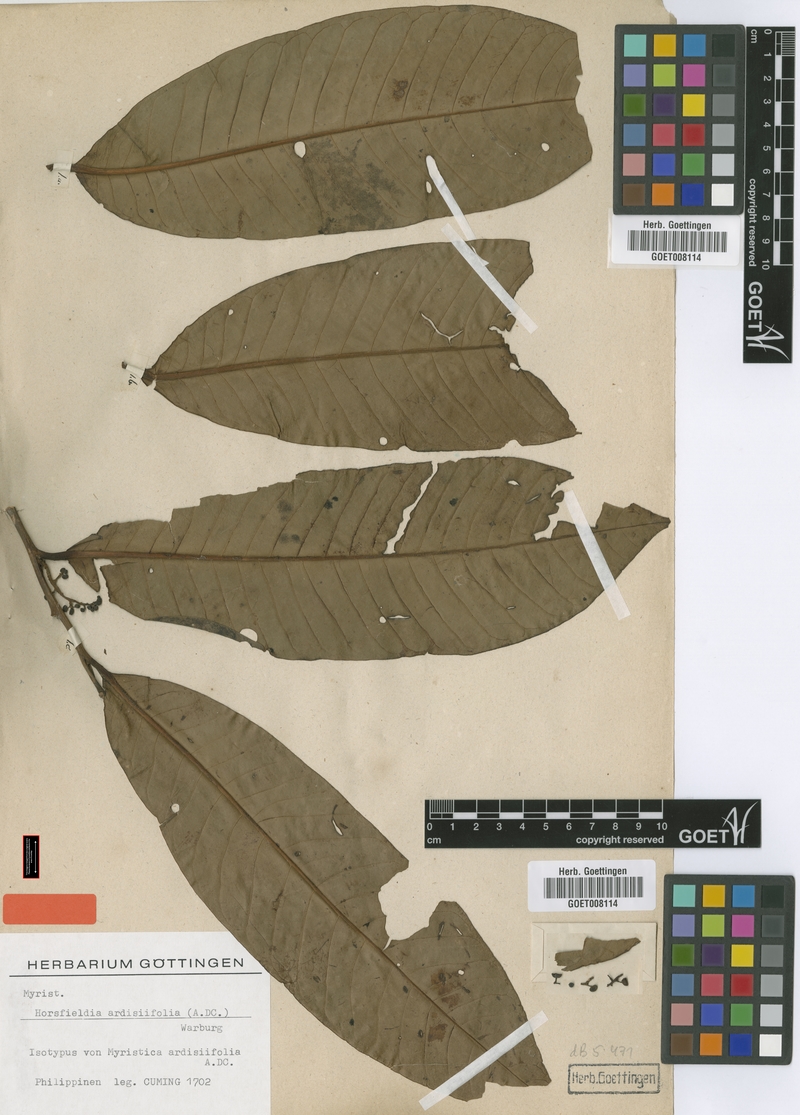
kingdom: Plantae
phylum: Tracheophyta
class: Magnoliopsida
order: Magnoliales
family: Myristicaceae
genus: Horsfieldia
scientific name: Horsfieldia ardisiifolia
